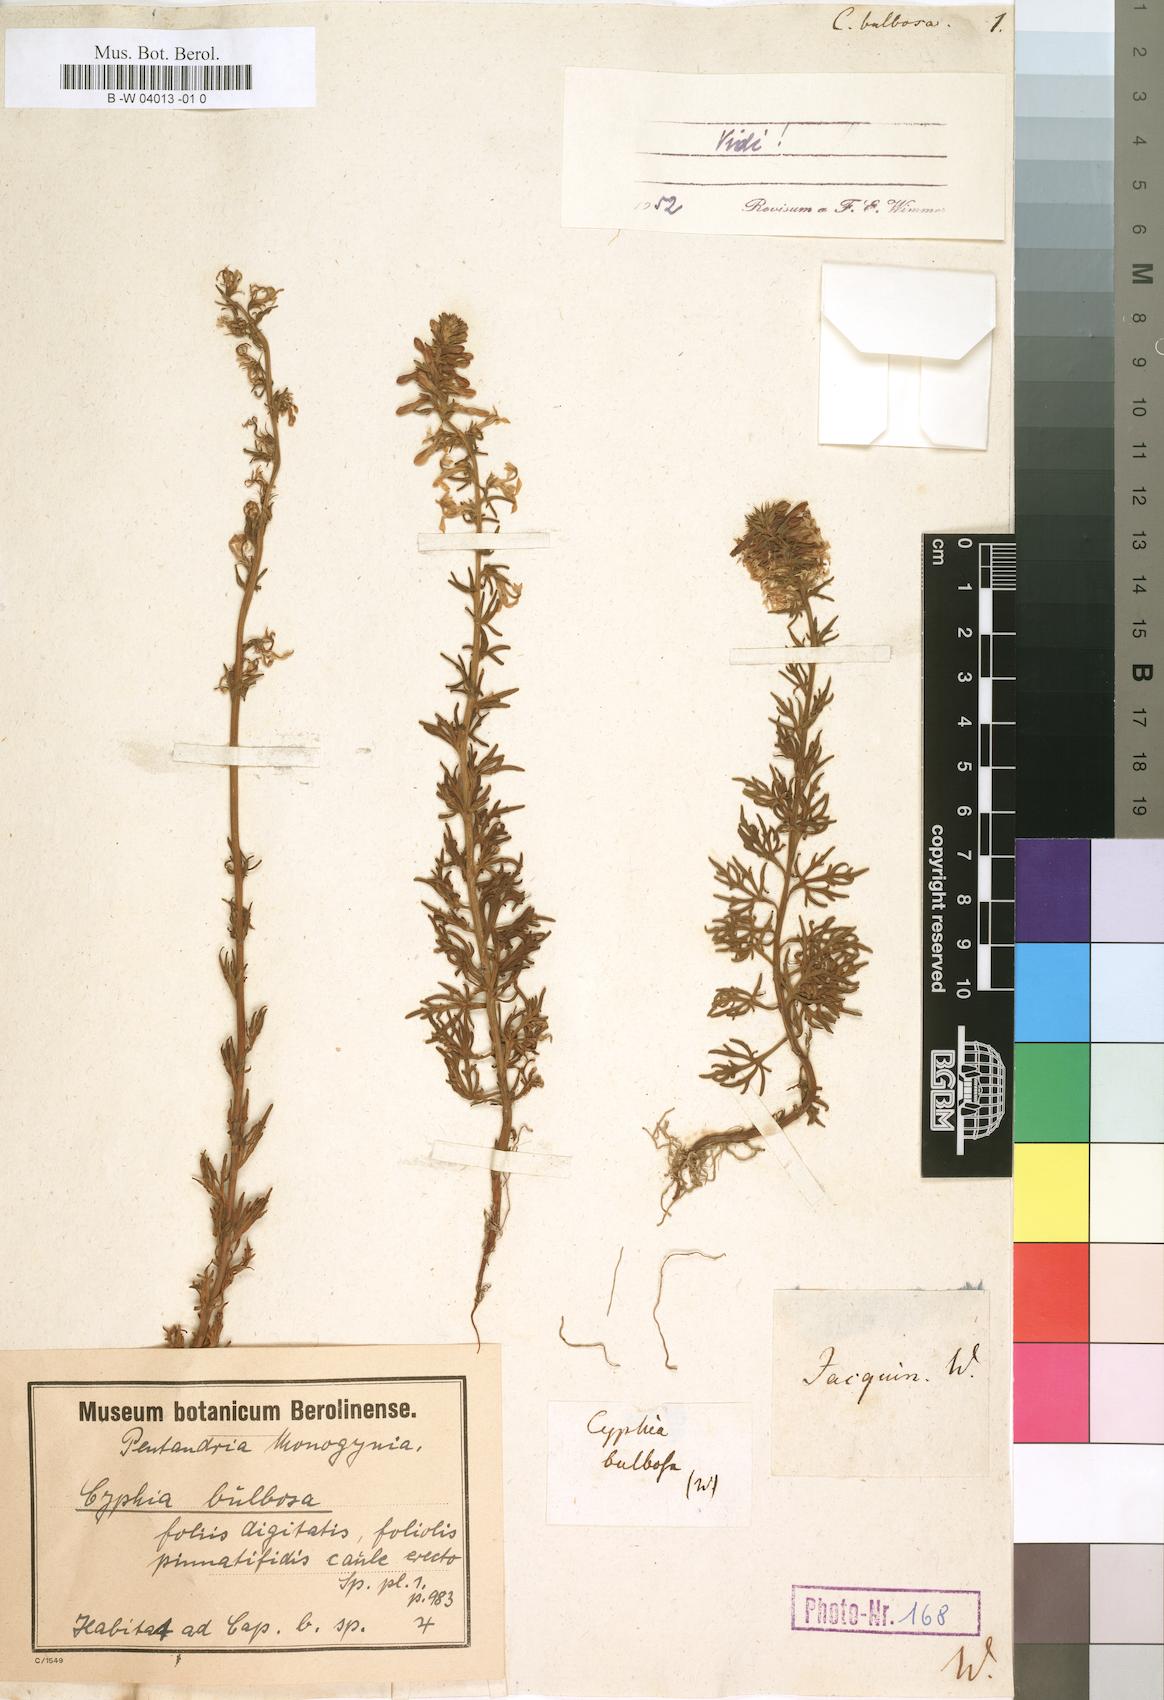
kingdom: Plantae
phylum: Tracheophyta
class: Magnoliopsida
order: Asterales
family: Campanulaceae
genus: Cyphia
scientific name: Cyphia bulbosa
